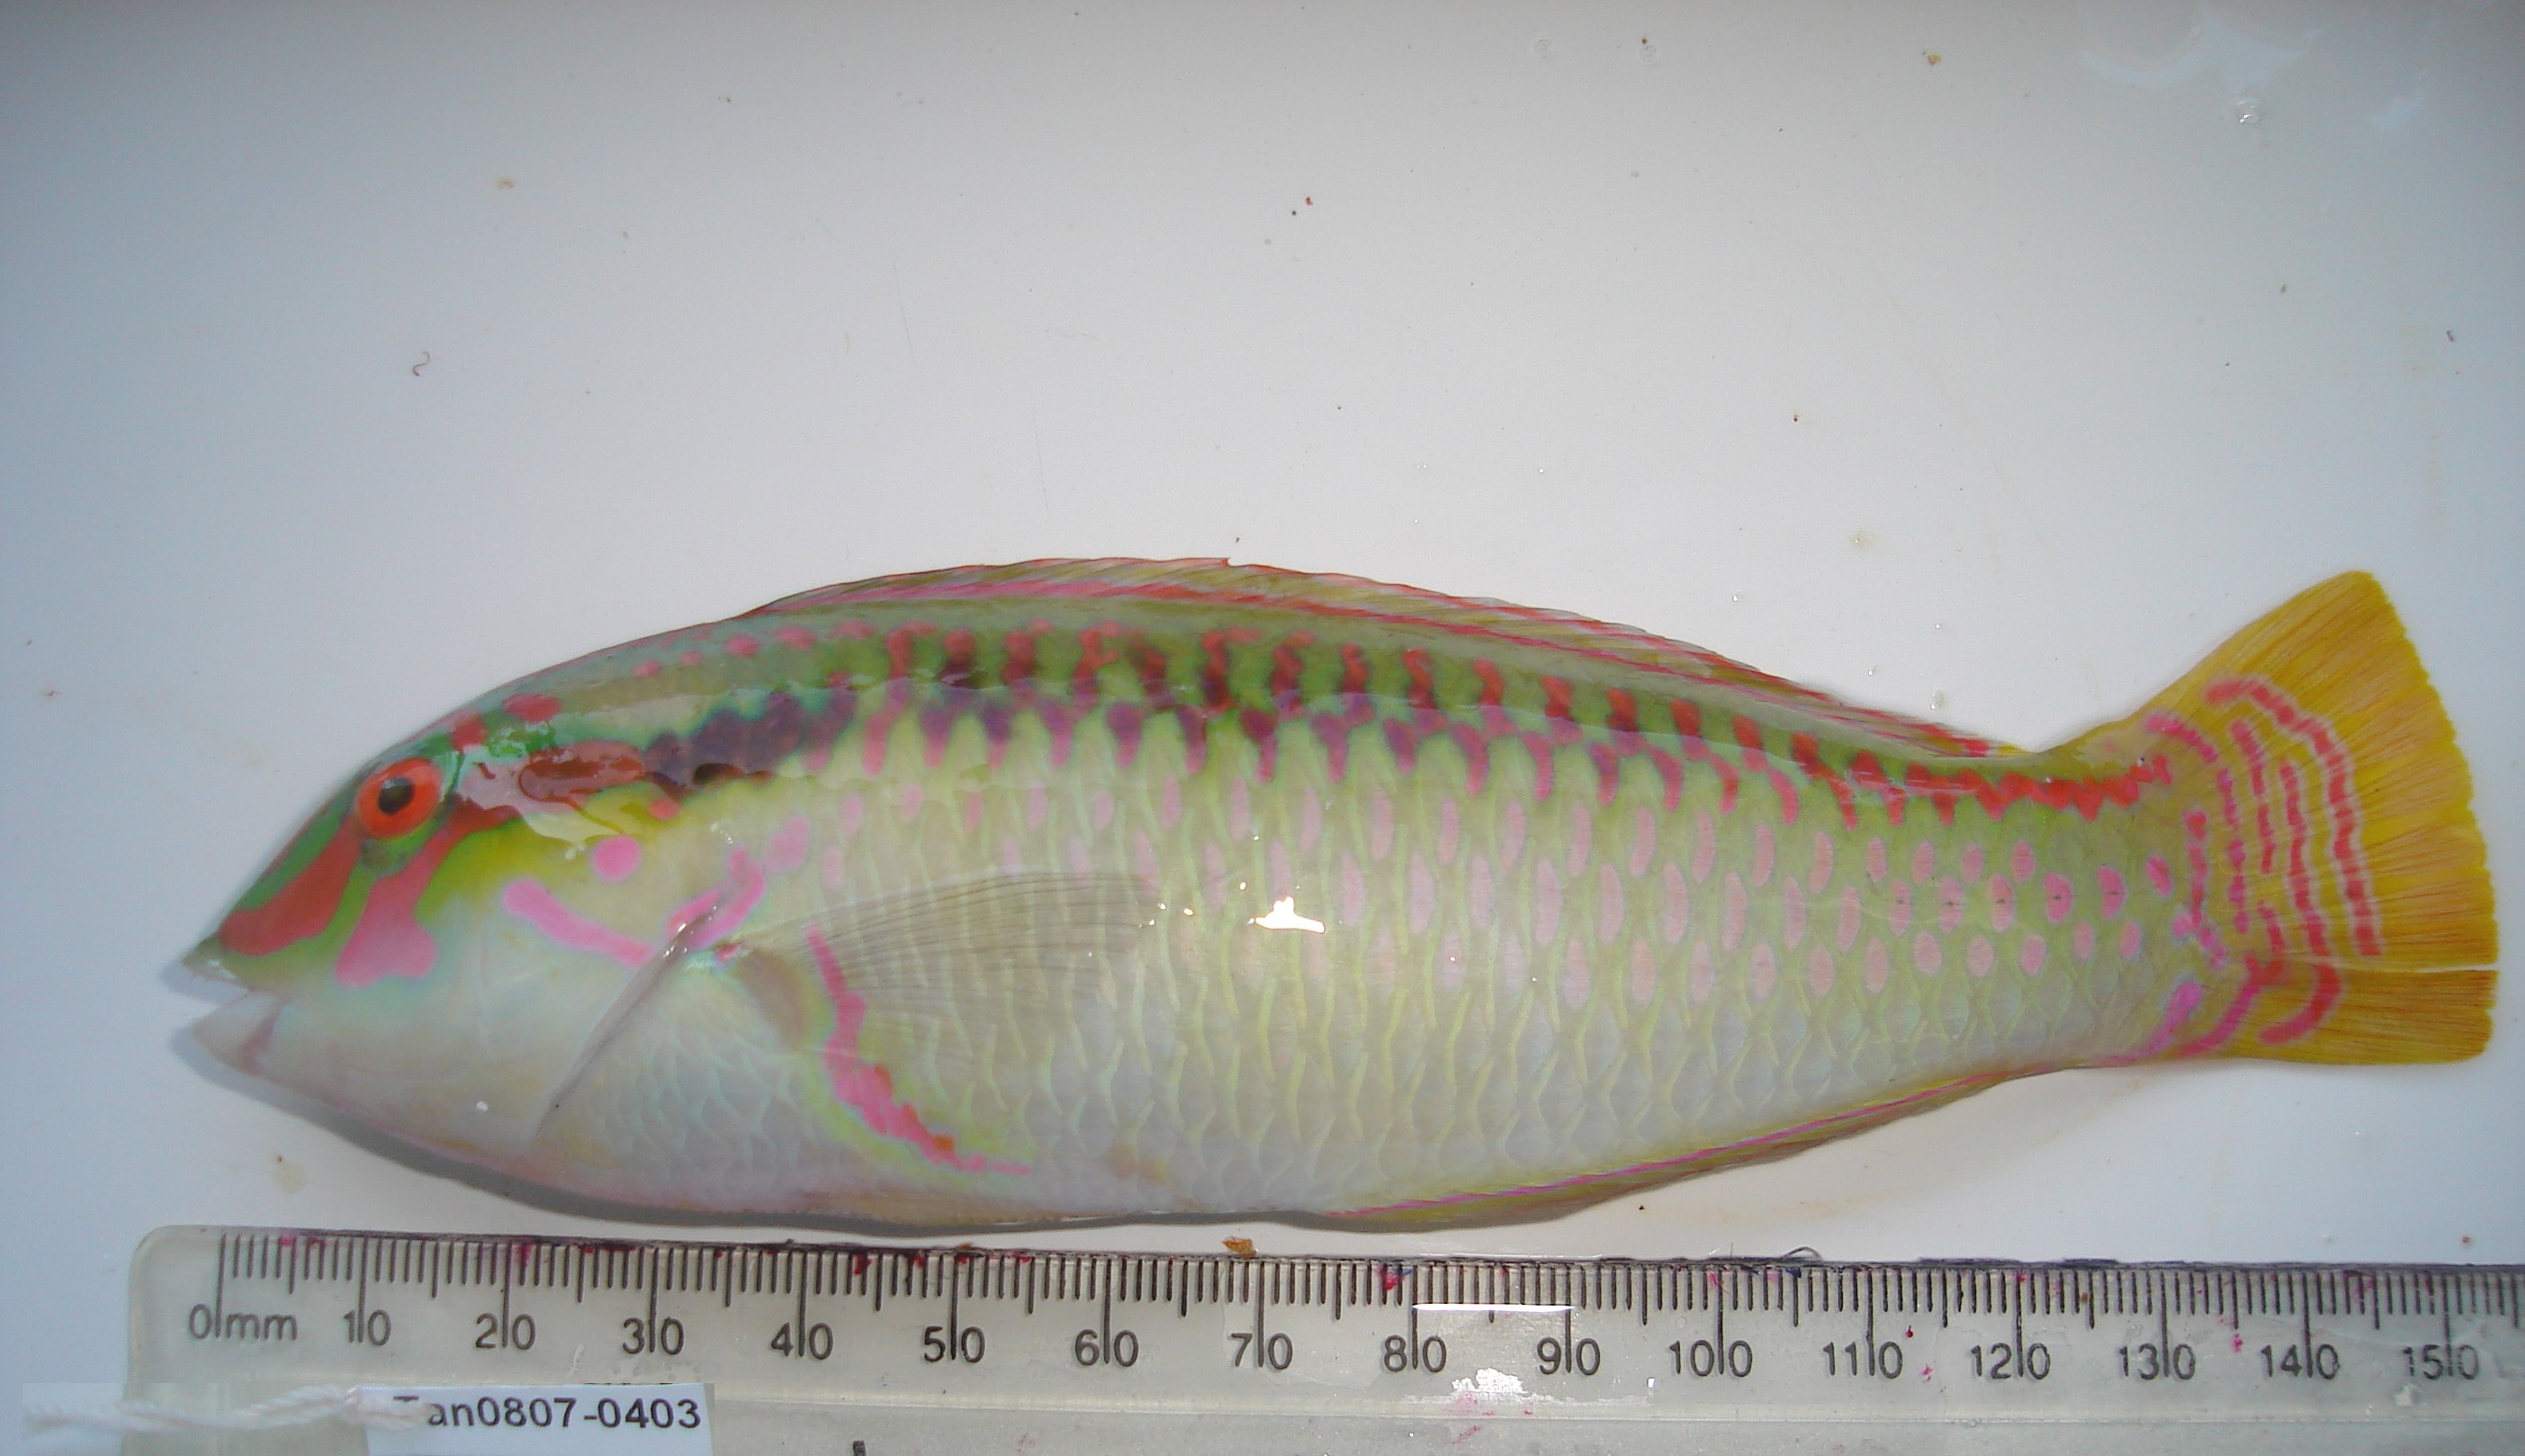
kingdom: Animalia
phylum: Chordata
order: Perciformes
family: Labridae
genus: Halichoeres
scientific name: Halichoeres scapularis
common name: Brownbanded wrasse
